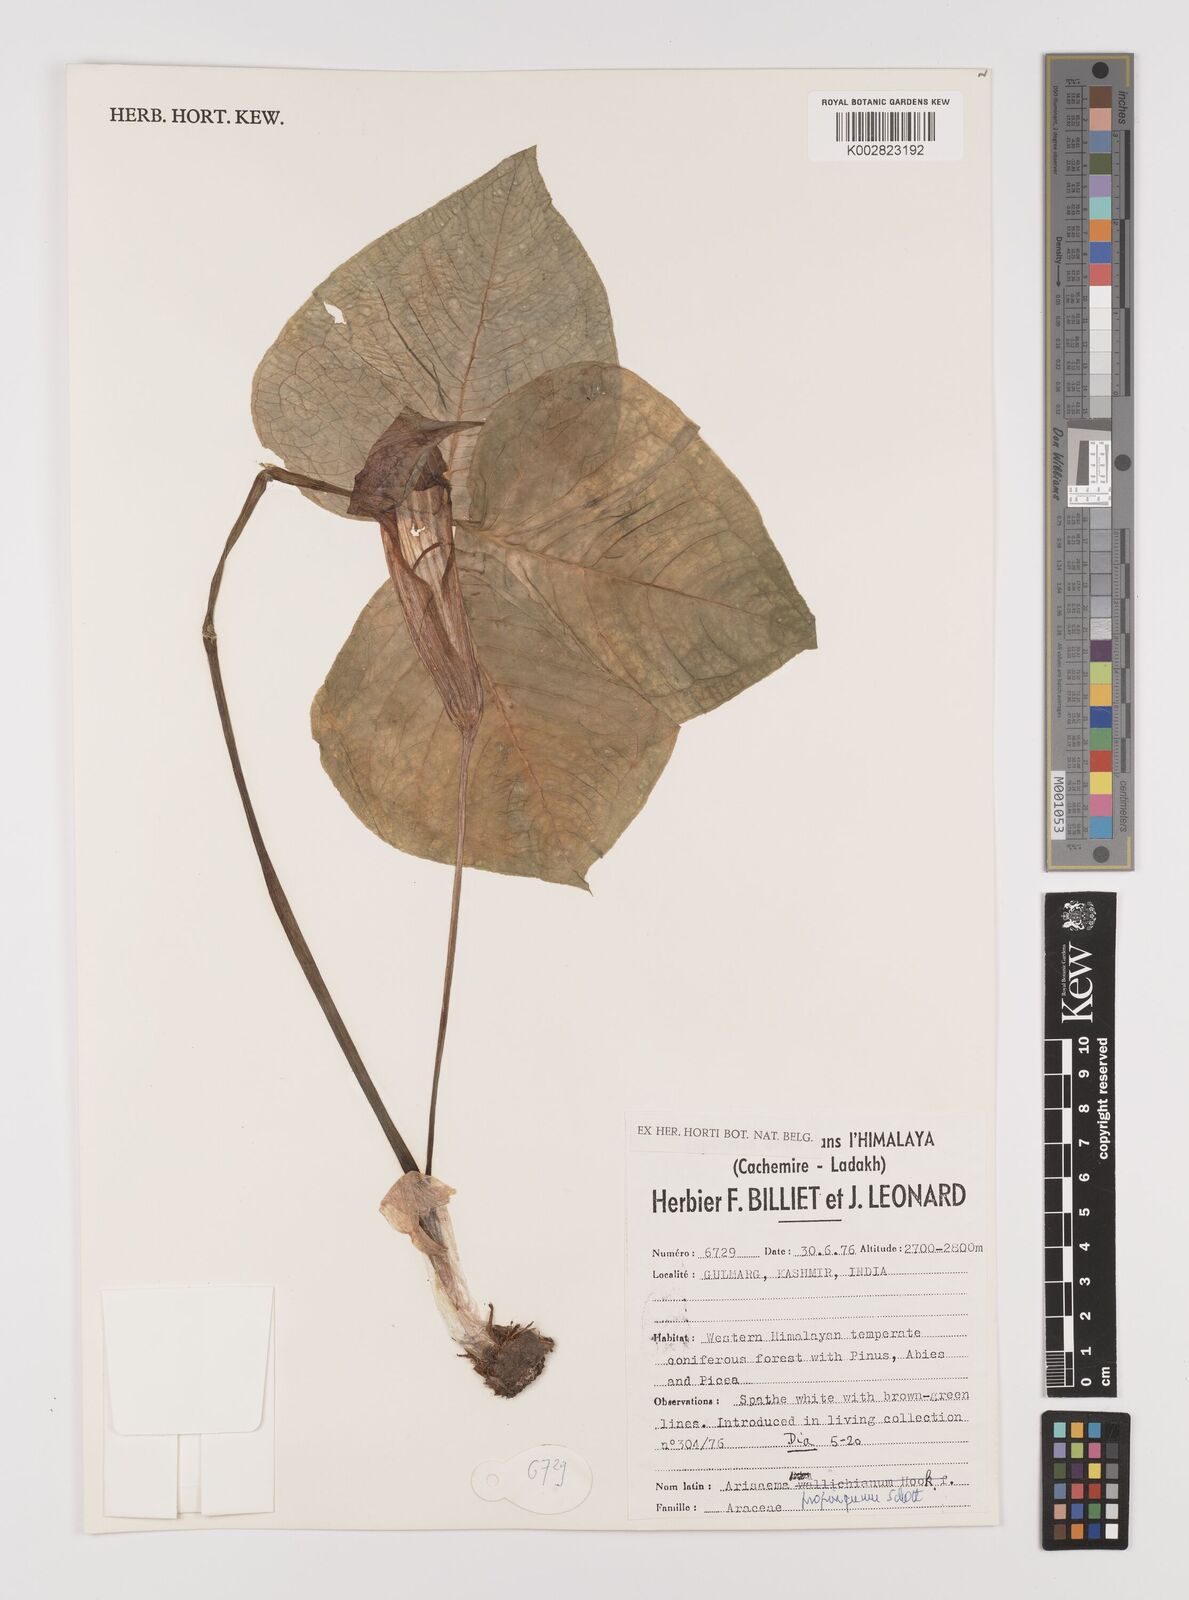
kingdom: Plantae
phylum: Tracheophyta
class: Liliopsida
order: Alismatales
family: Araceae
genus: Arisaema
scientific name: Arisaema propinquum
